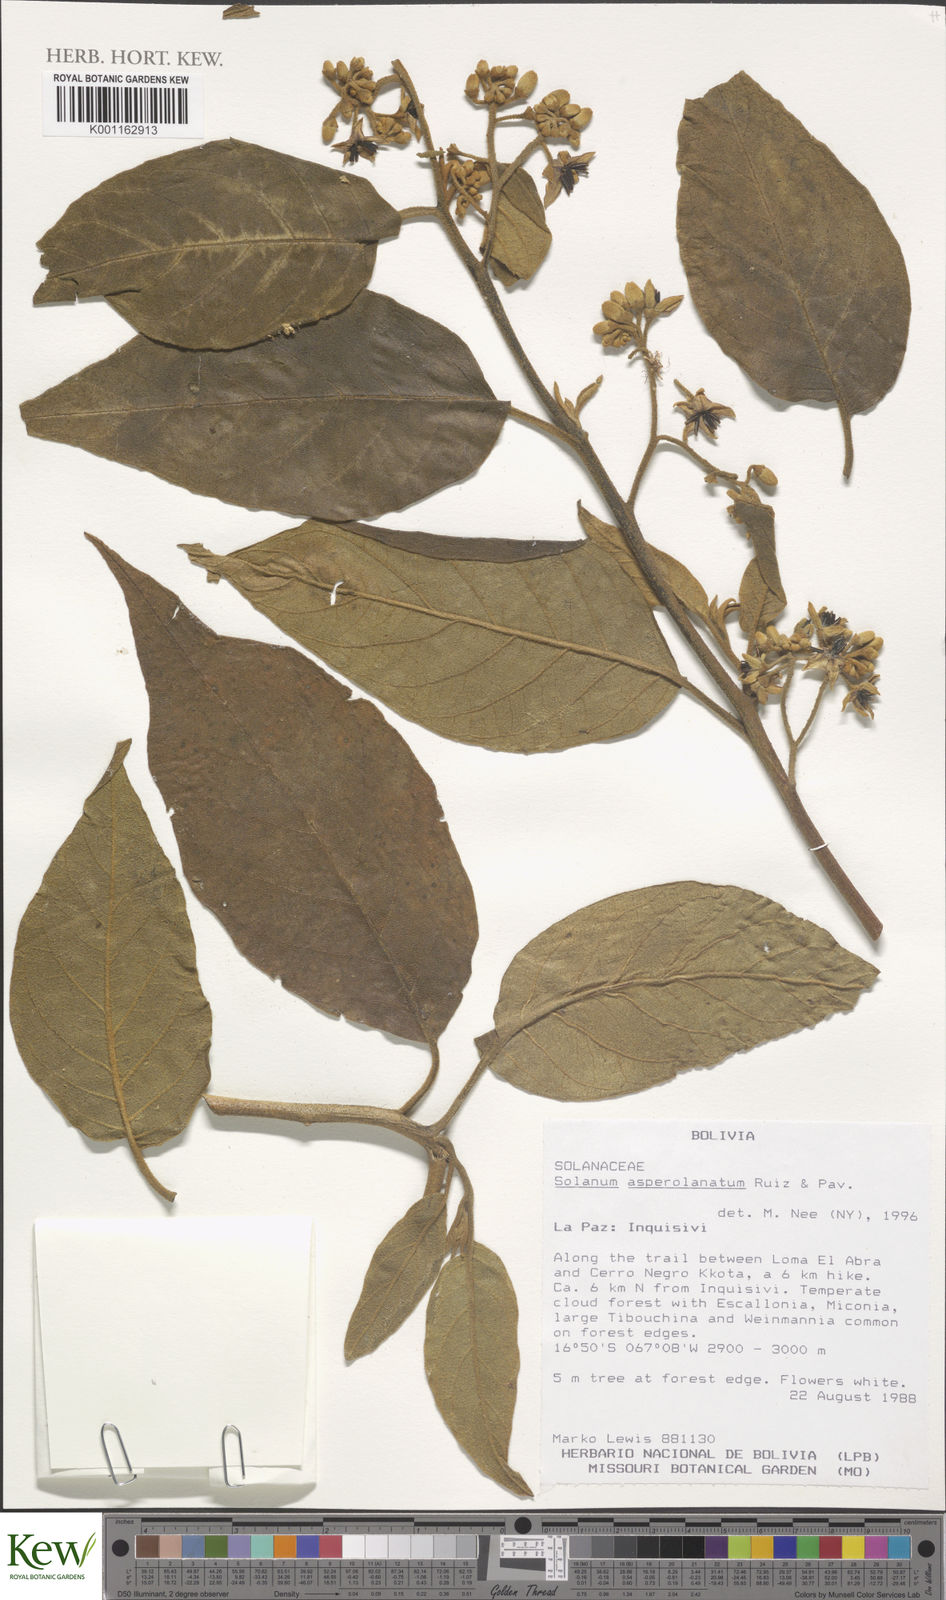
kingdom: Plantae
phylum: Tracheophyta
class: Magnoliopsida
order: Solanales
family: Solanaceae
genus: Solanum
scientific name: Solanum asperolanatum
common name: Devil's-fig
